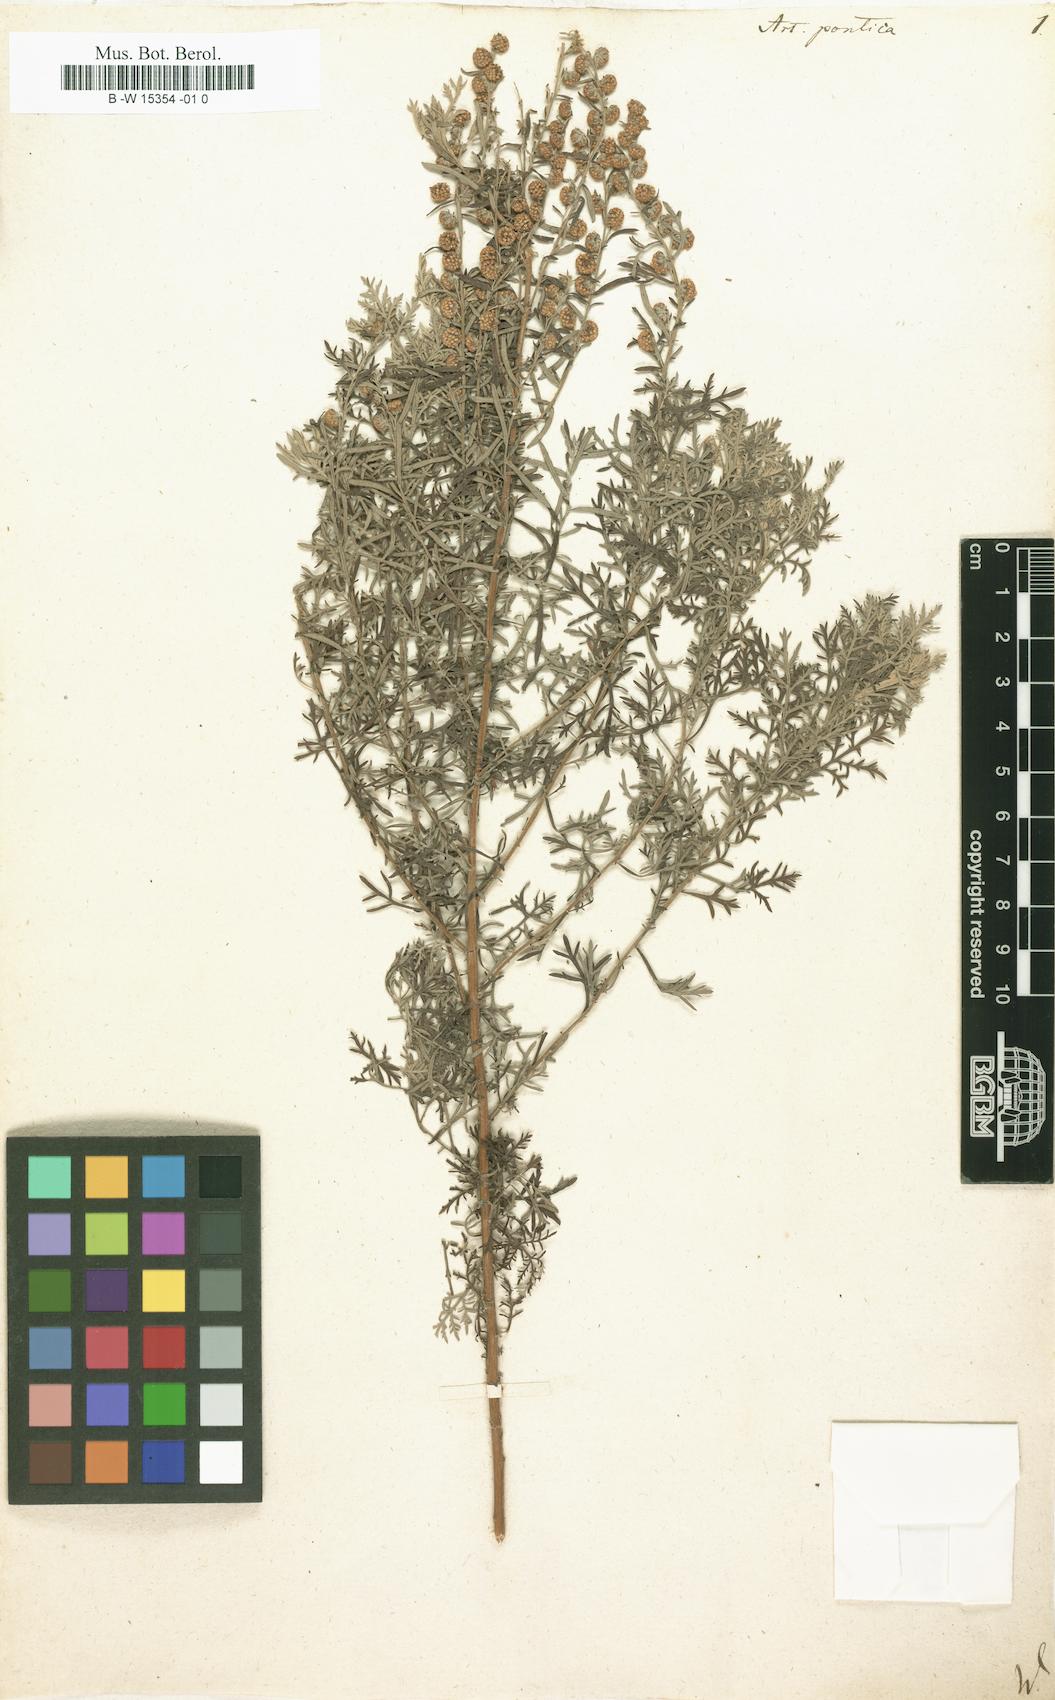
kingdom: Plantae
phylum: Tracheophyta
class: Magnoliopsida
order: Asterales
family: Asteraceae
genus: Artemisia
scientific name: Artemisia pontica
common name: Roman wormwood
